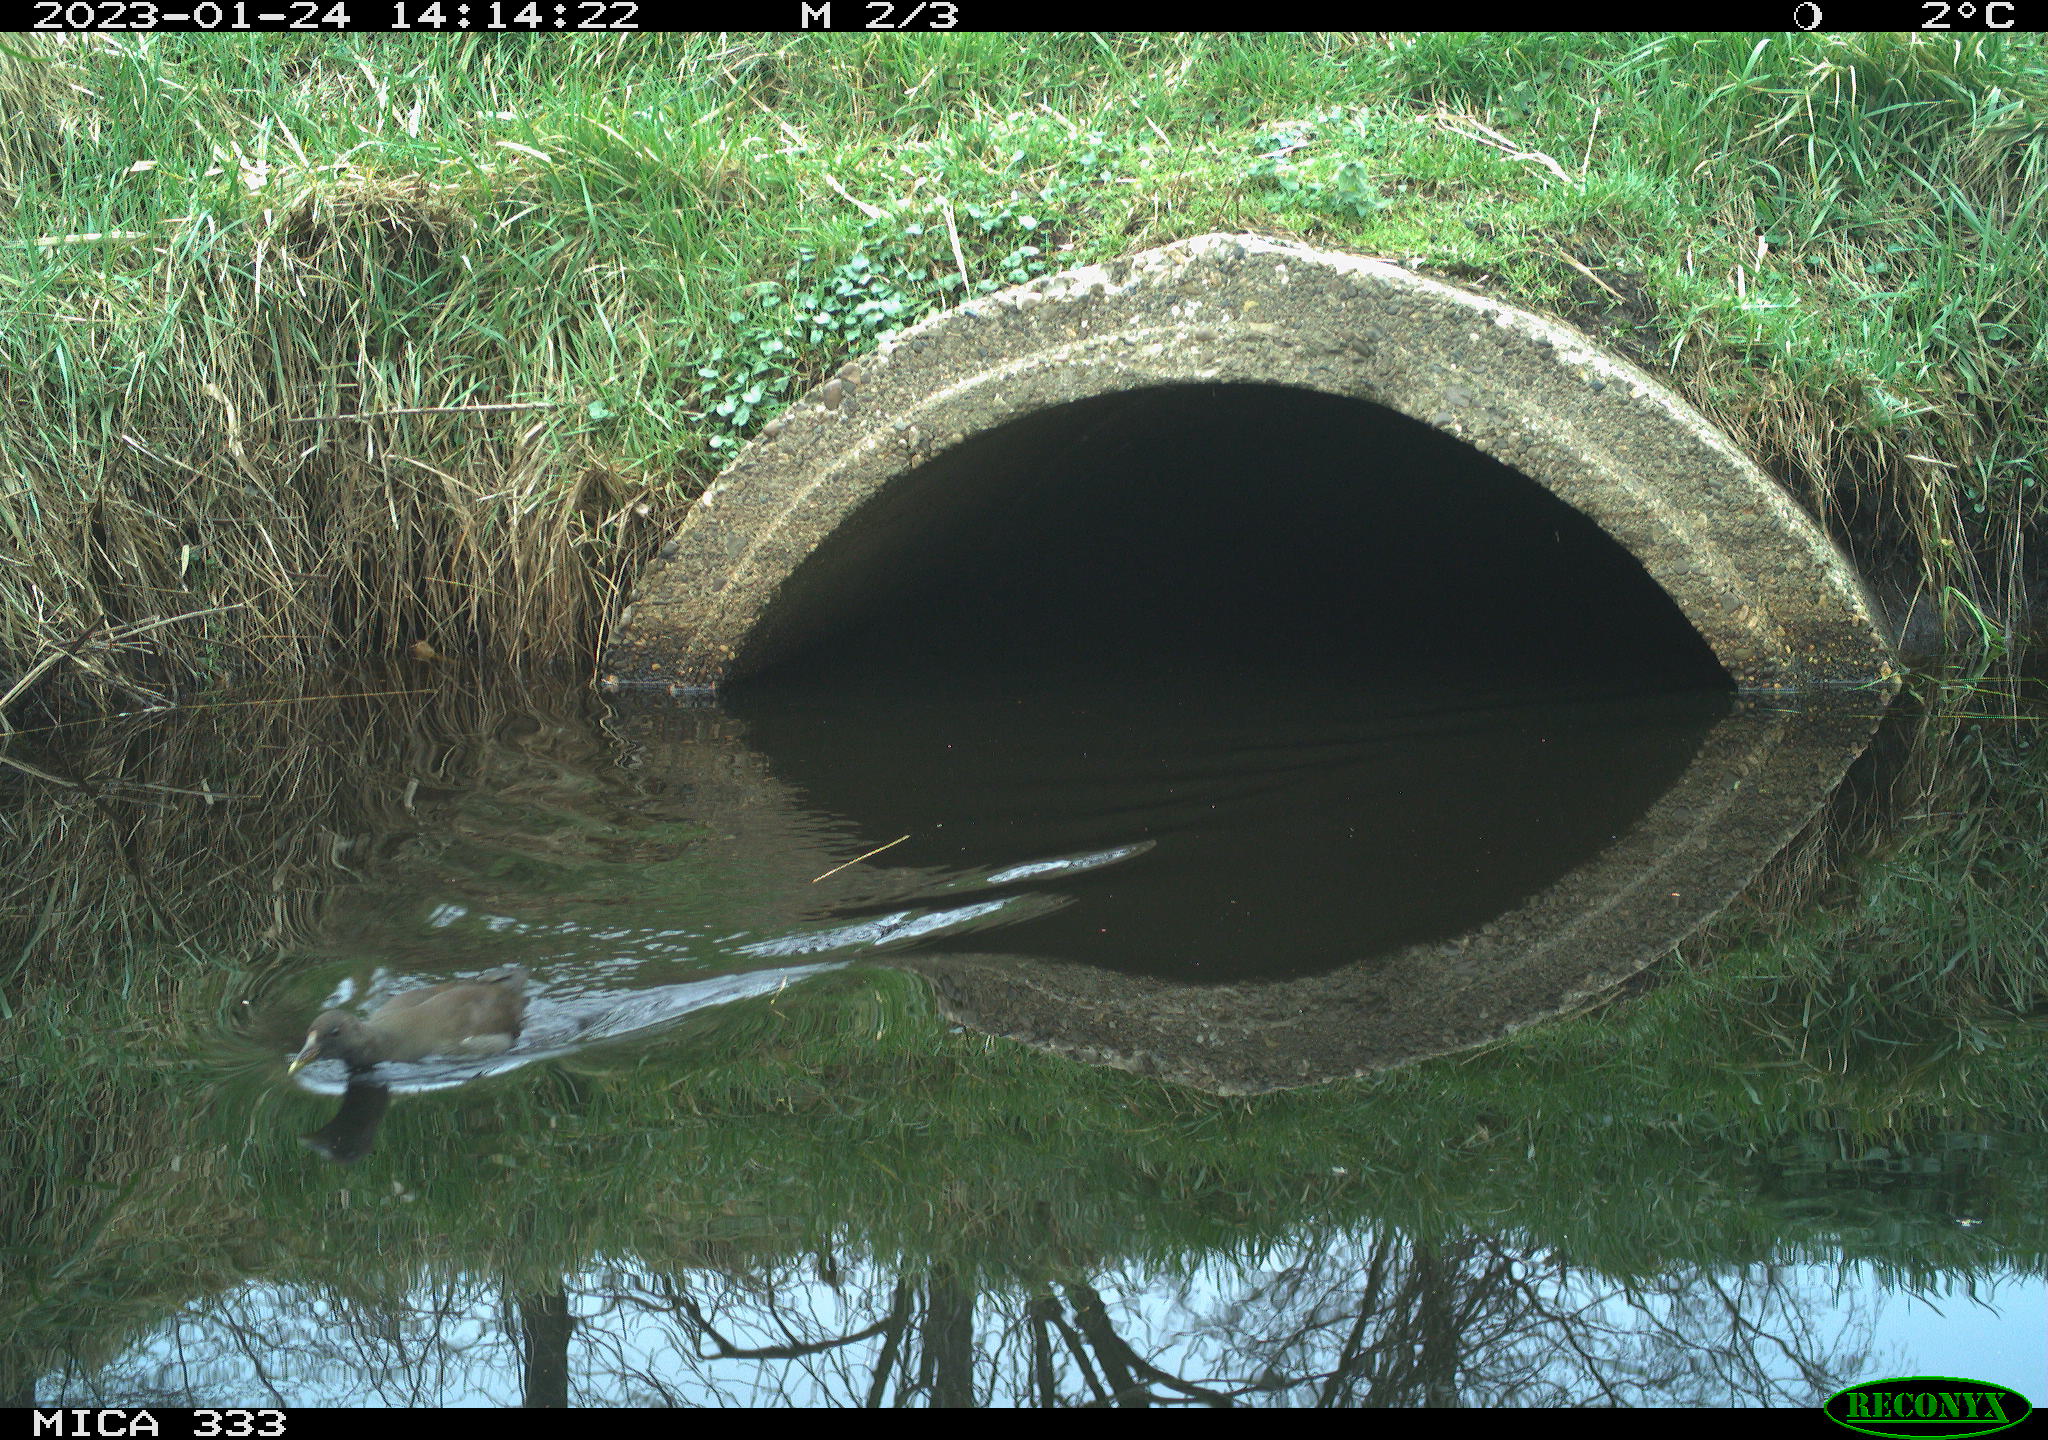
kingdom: Animalia
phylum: Chordata
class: Aves
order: Gruiformes
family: Rallidae
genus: Gallinula
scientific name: Gallinula chloropus
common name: Common moorhen
